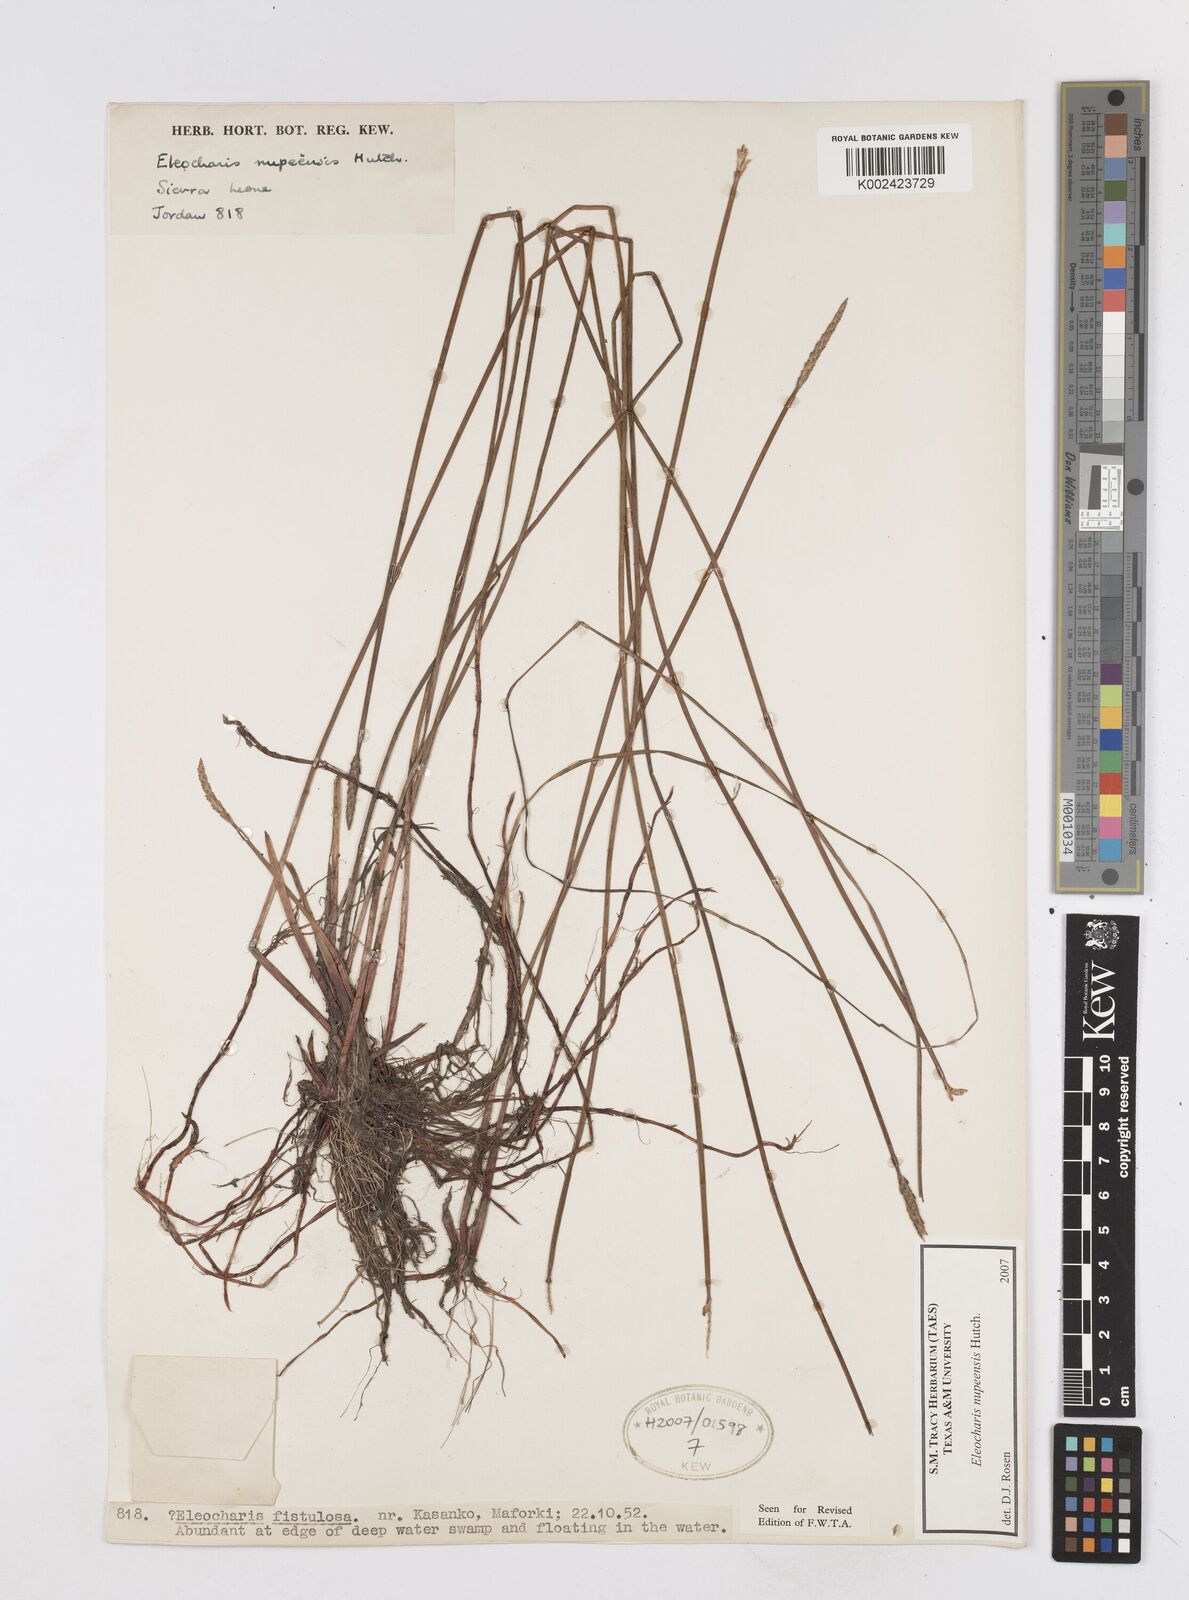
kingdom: Plantae
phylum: Tracheophyta
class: Liliopsida
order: Poales
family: Cyperaceae
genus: Eleocharis
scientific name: Eleocharis nupeensis
